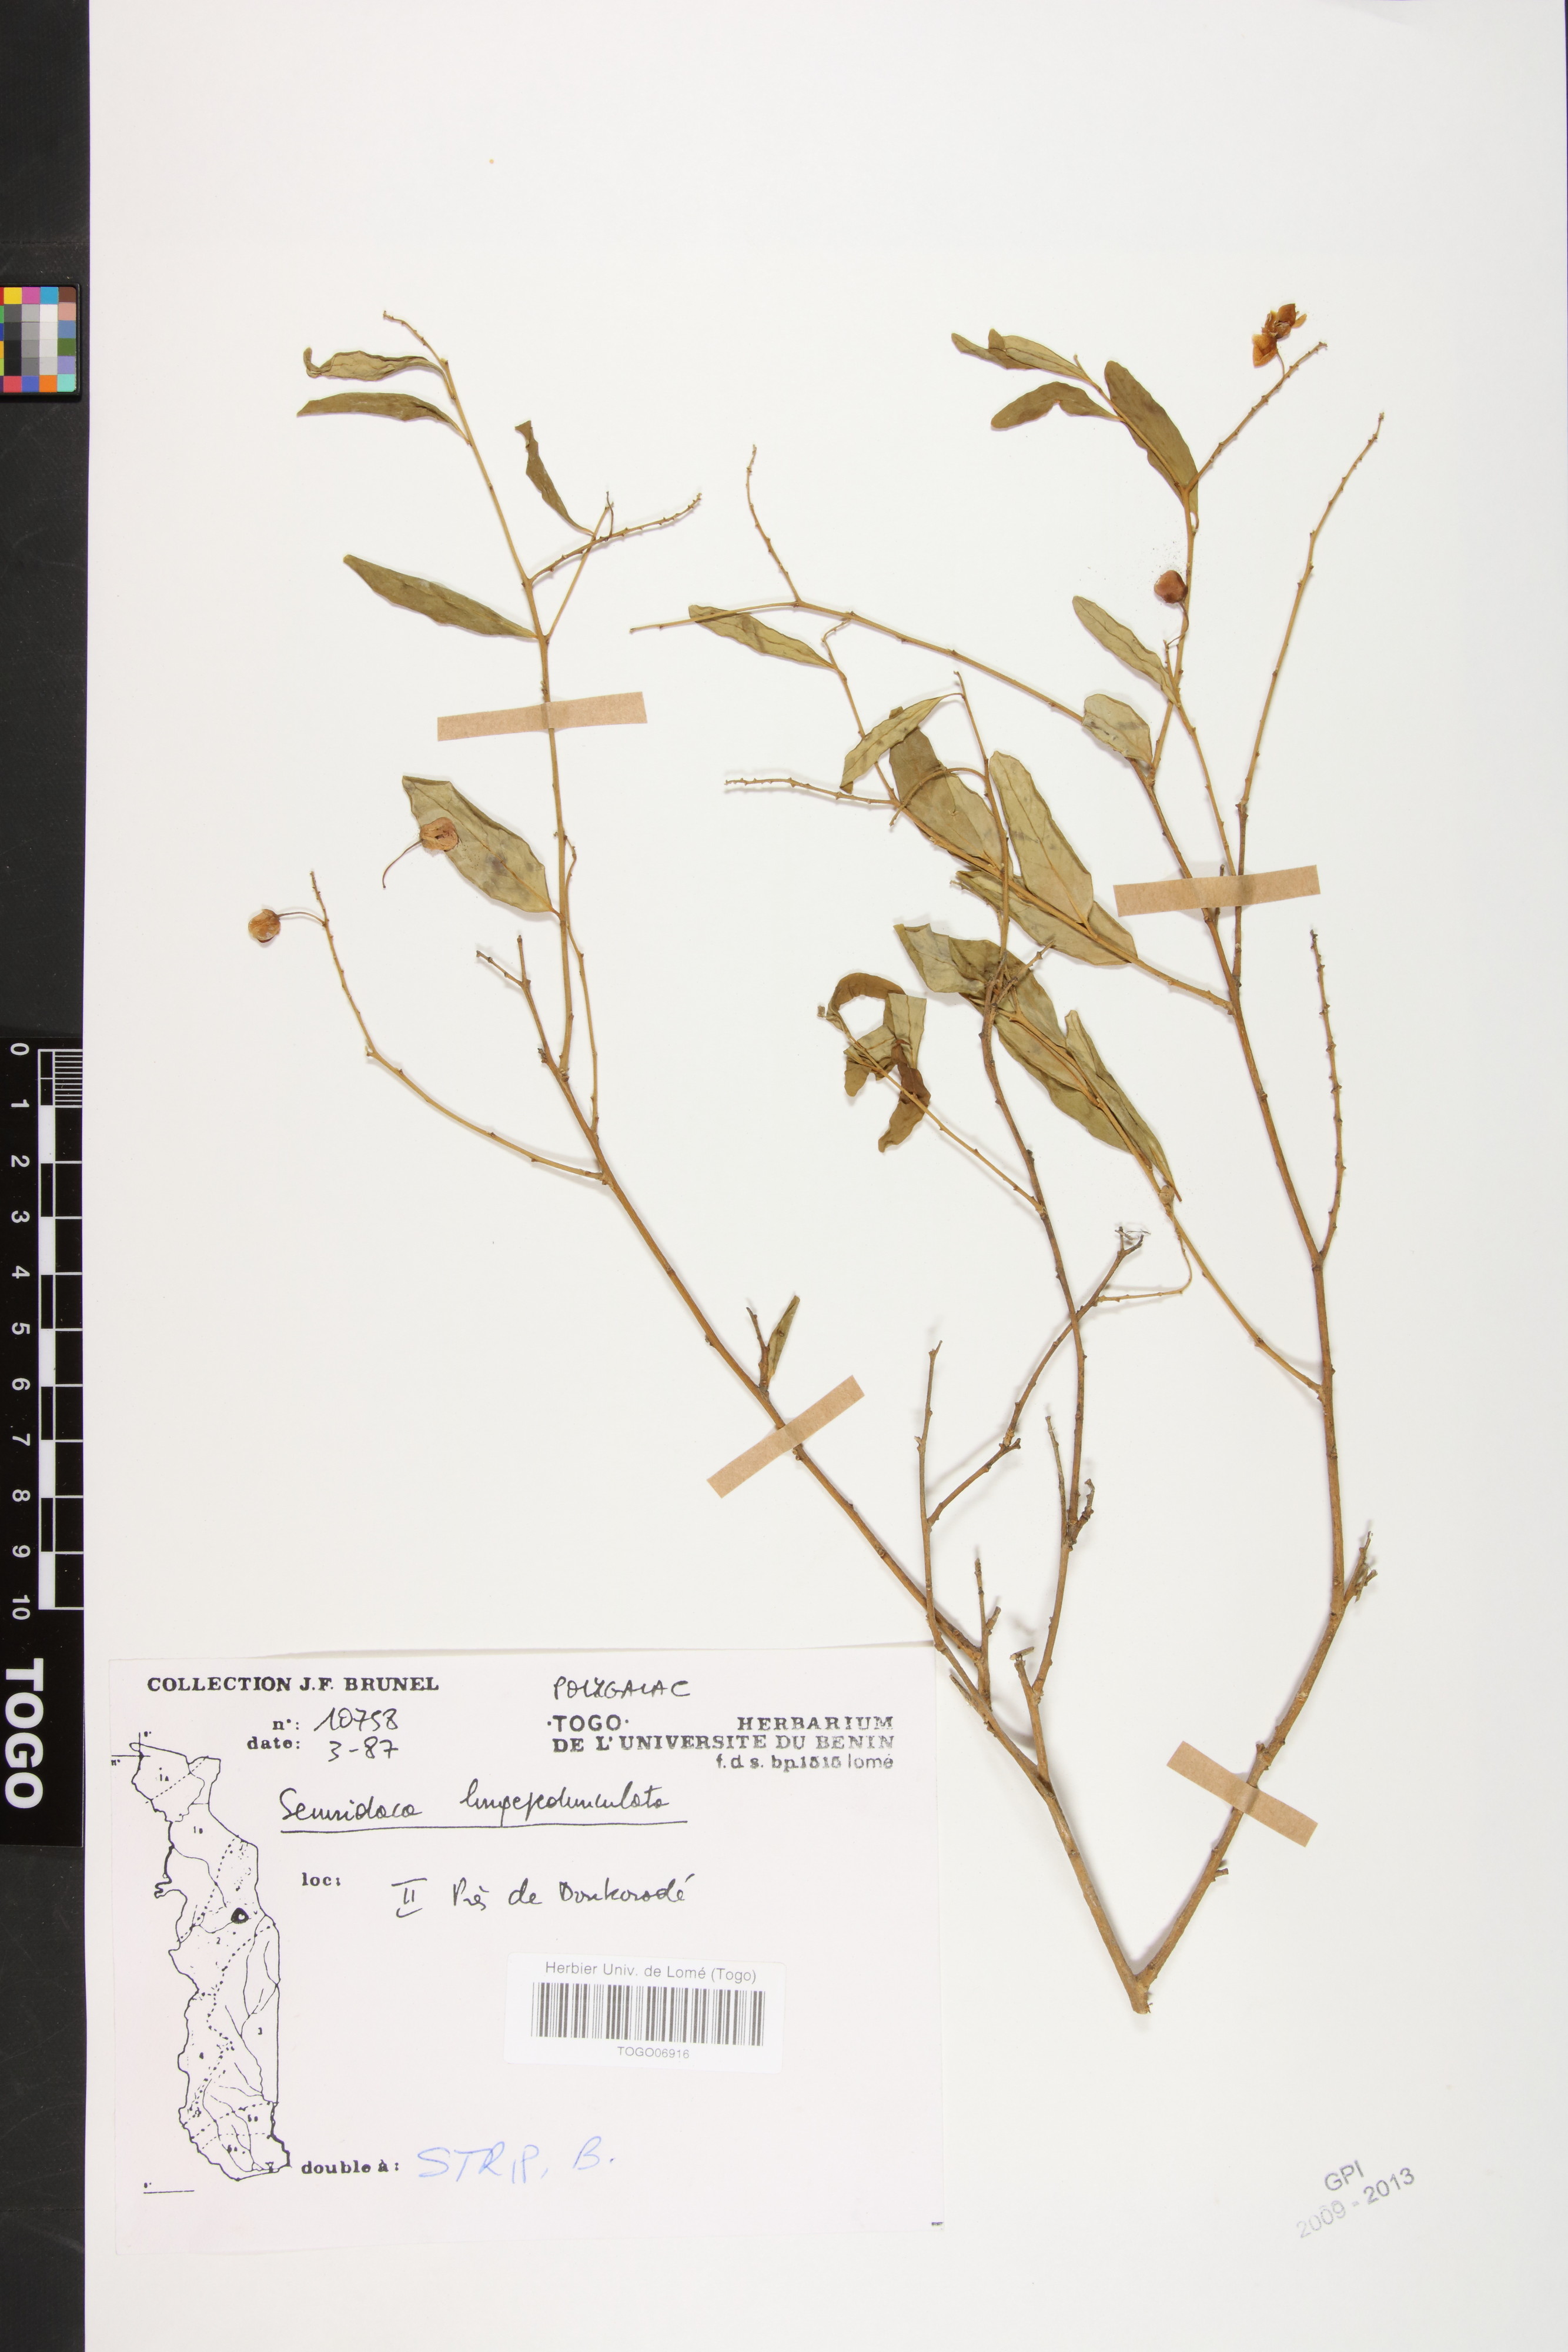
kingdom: Plantae
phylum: Tracheophyta
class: Magnoliopsida
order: Fabales
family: Polygalaceae
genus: Securidaca
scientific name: Securidaca longepedunculata
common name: Violet tree
